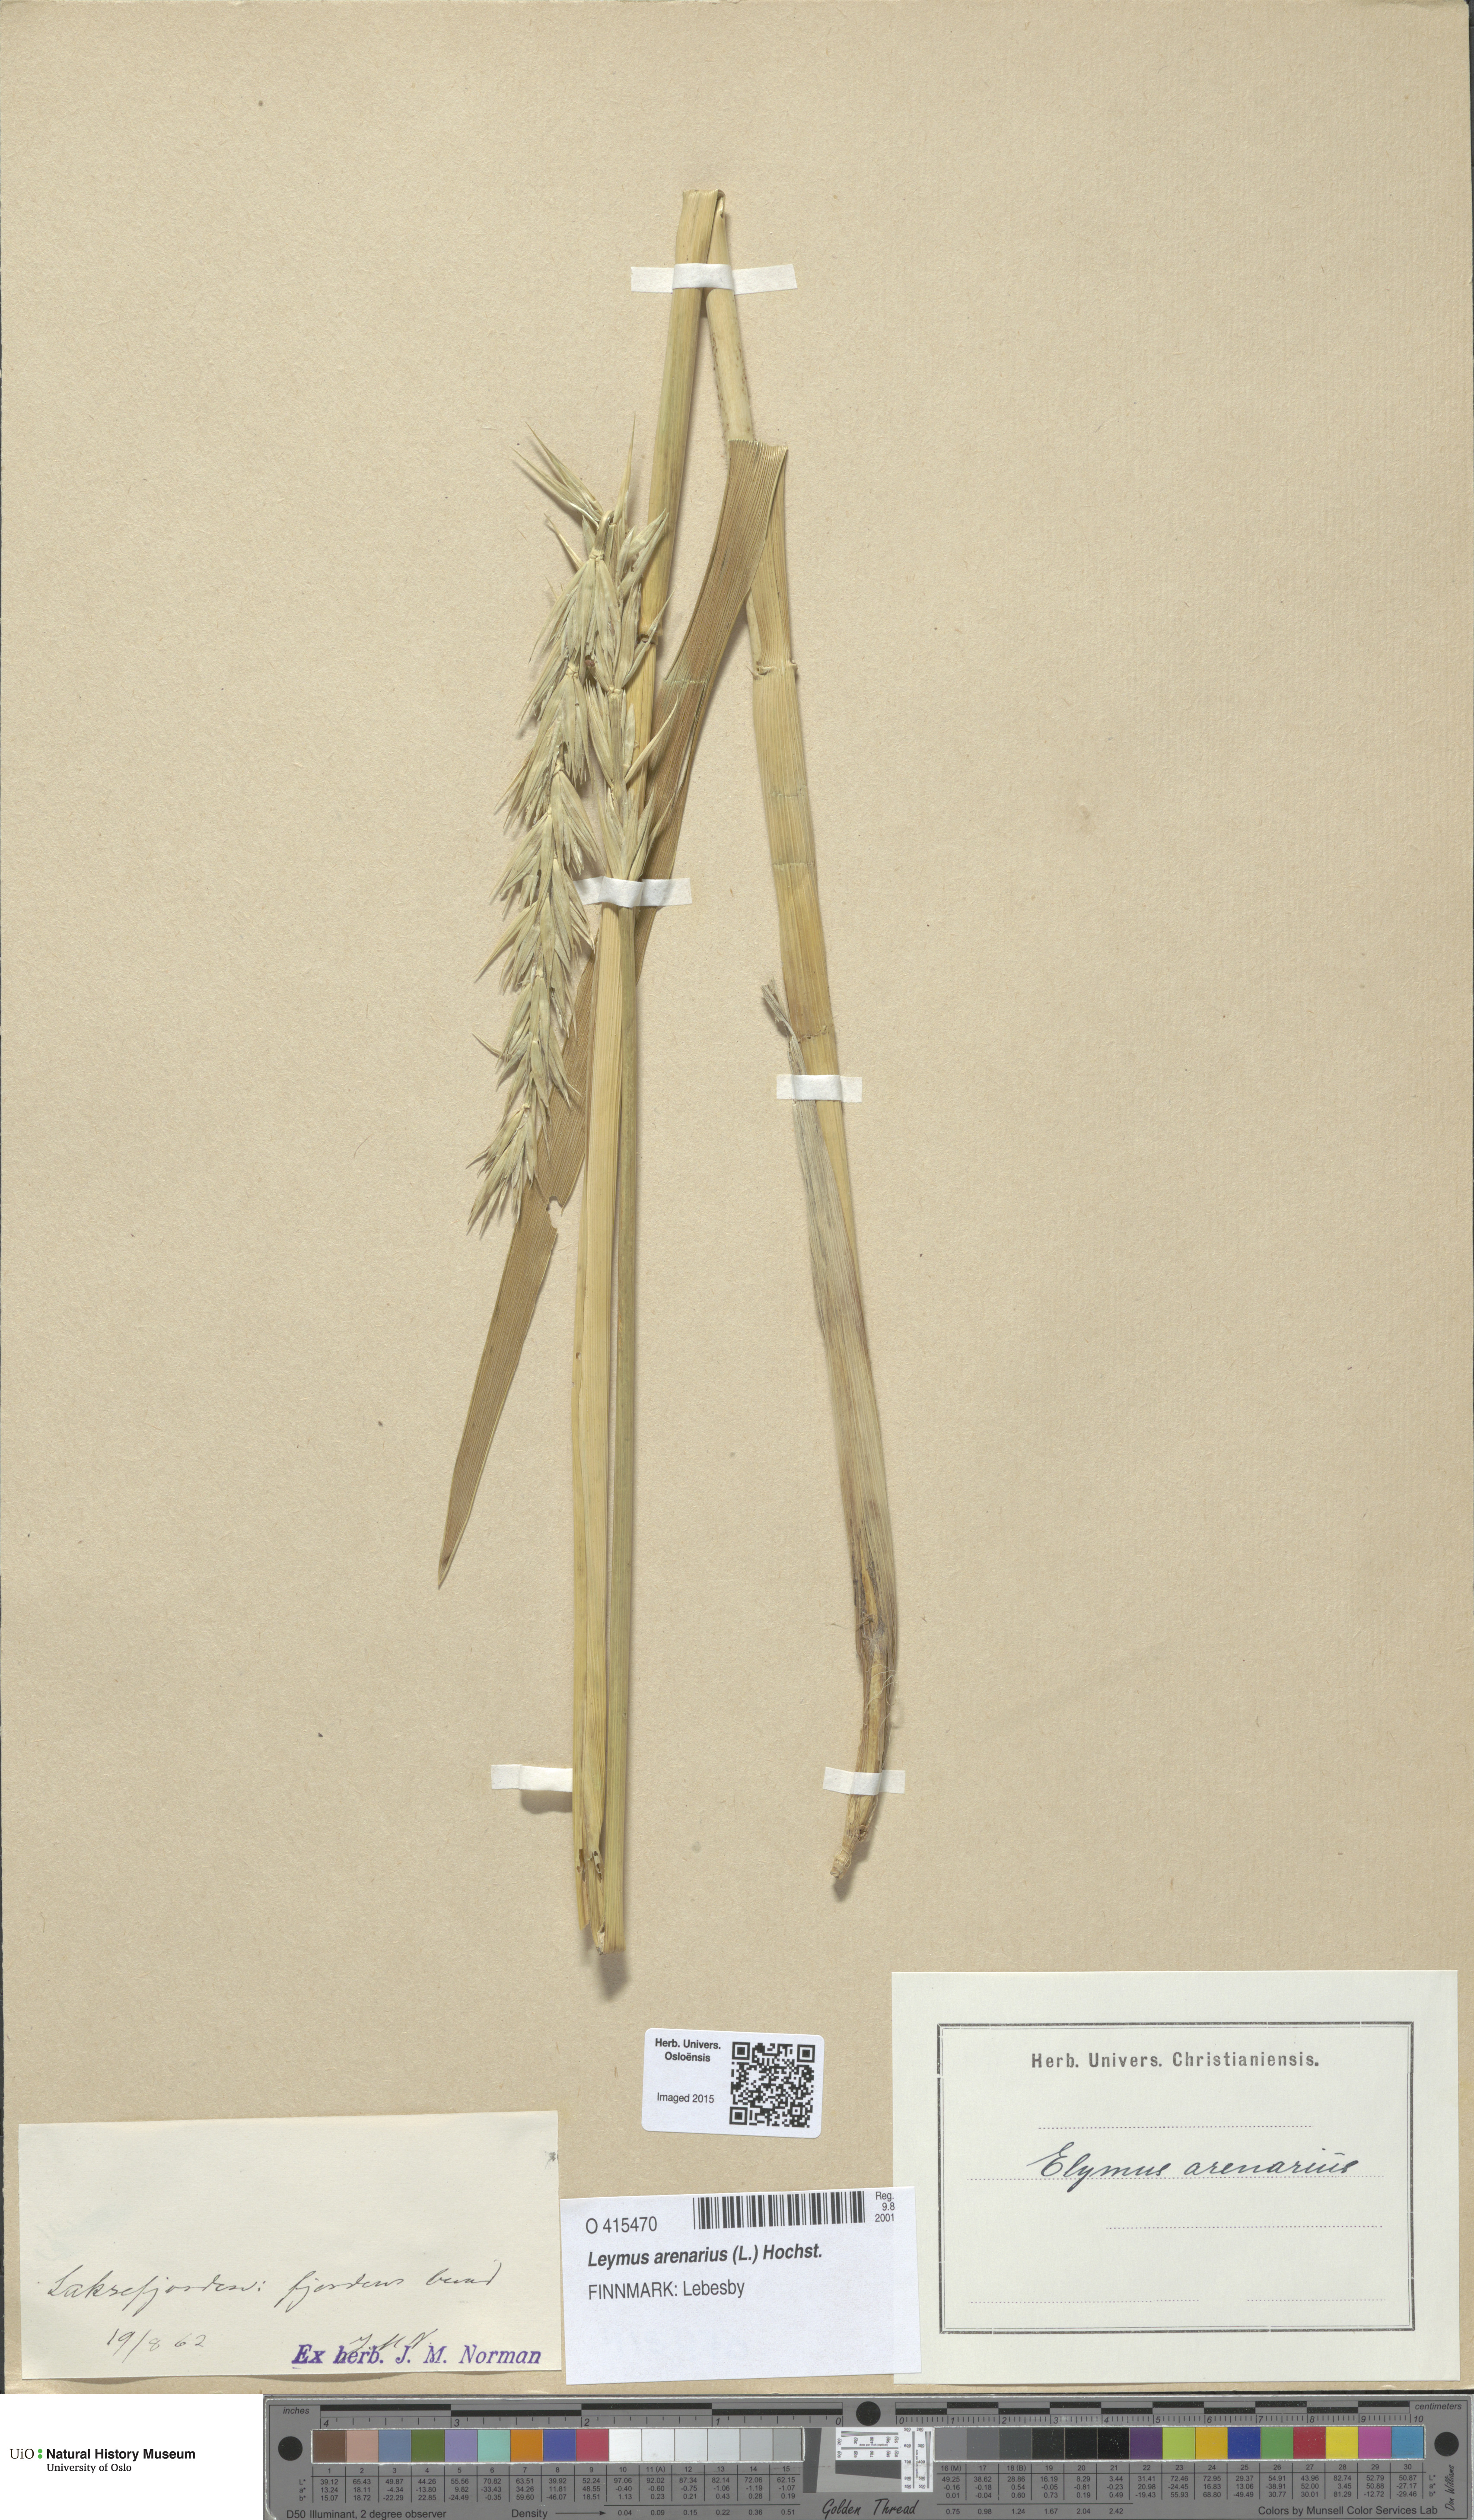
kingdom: Plantae
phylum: Tracheophyta
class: Liliopsida
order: Poales
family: Poaceae
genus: Leymus
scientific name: Leymus arenarius
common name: Lyme-grass
